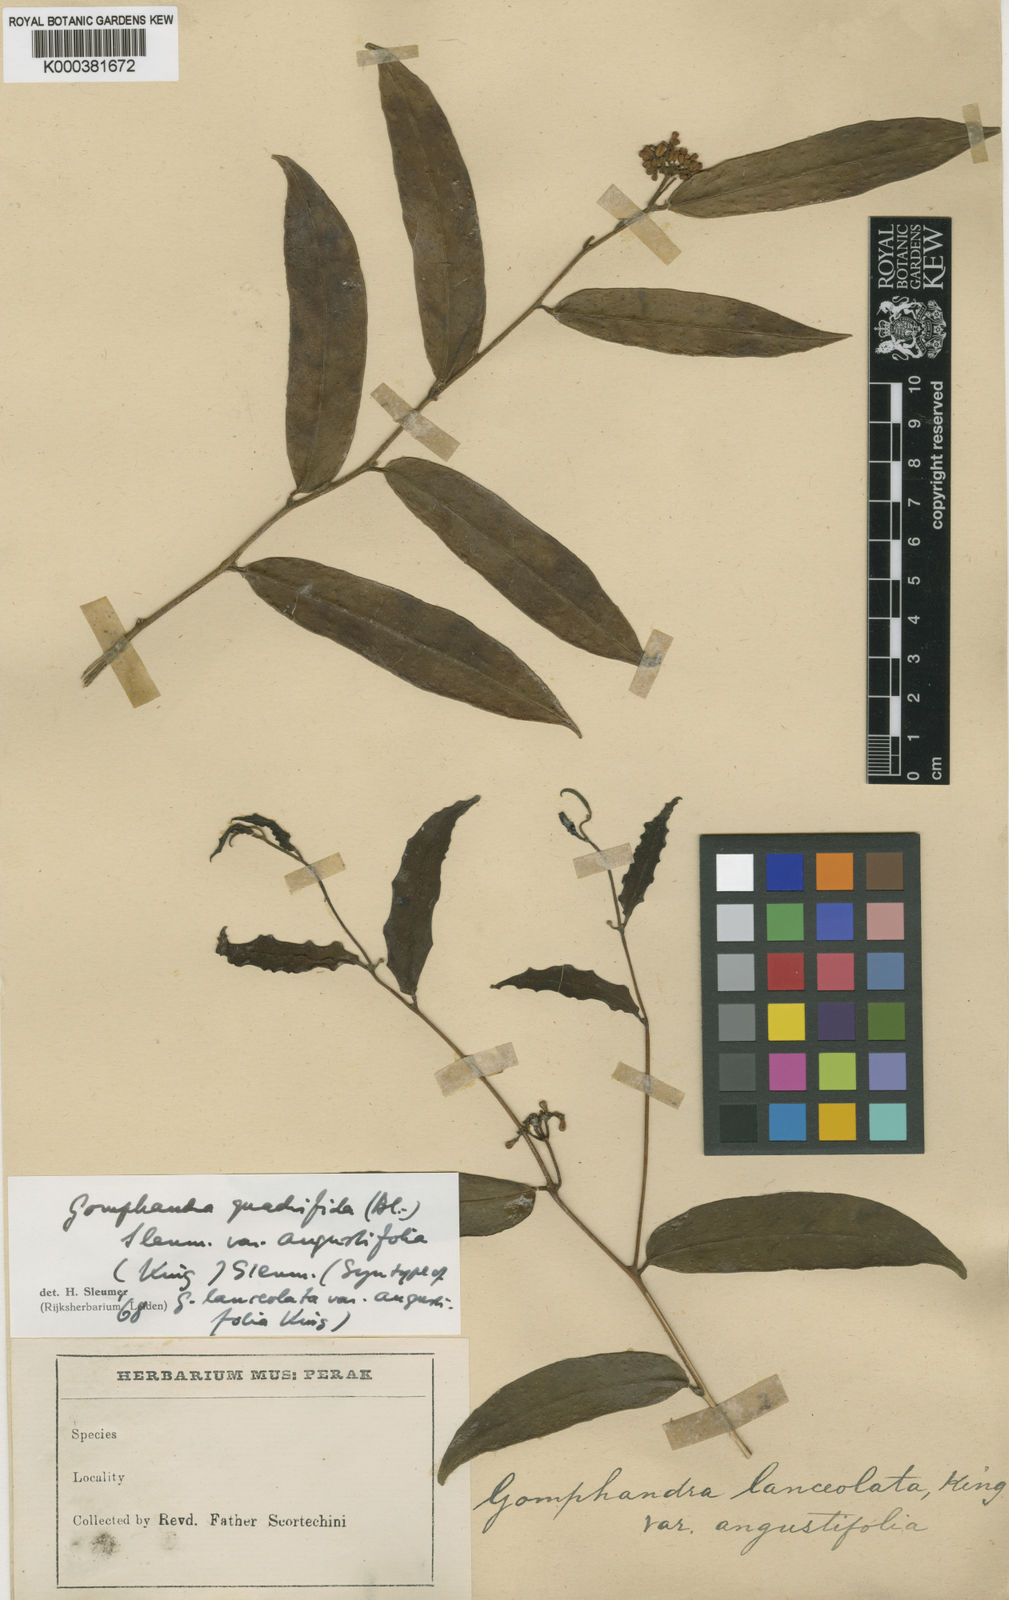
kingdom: Plantae
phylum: Tracheophyta
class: Magnoliopsida
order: Cardiopteridales
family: Stemonuraceae
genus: Gomphandra
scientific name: Gomphandra quadrifida
